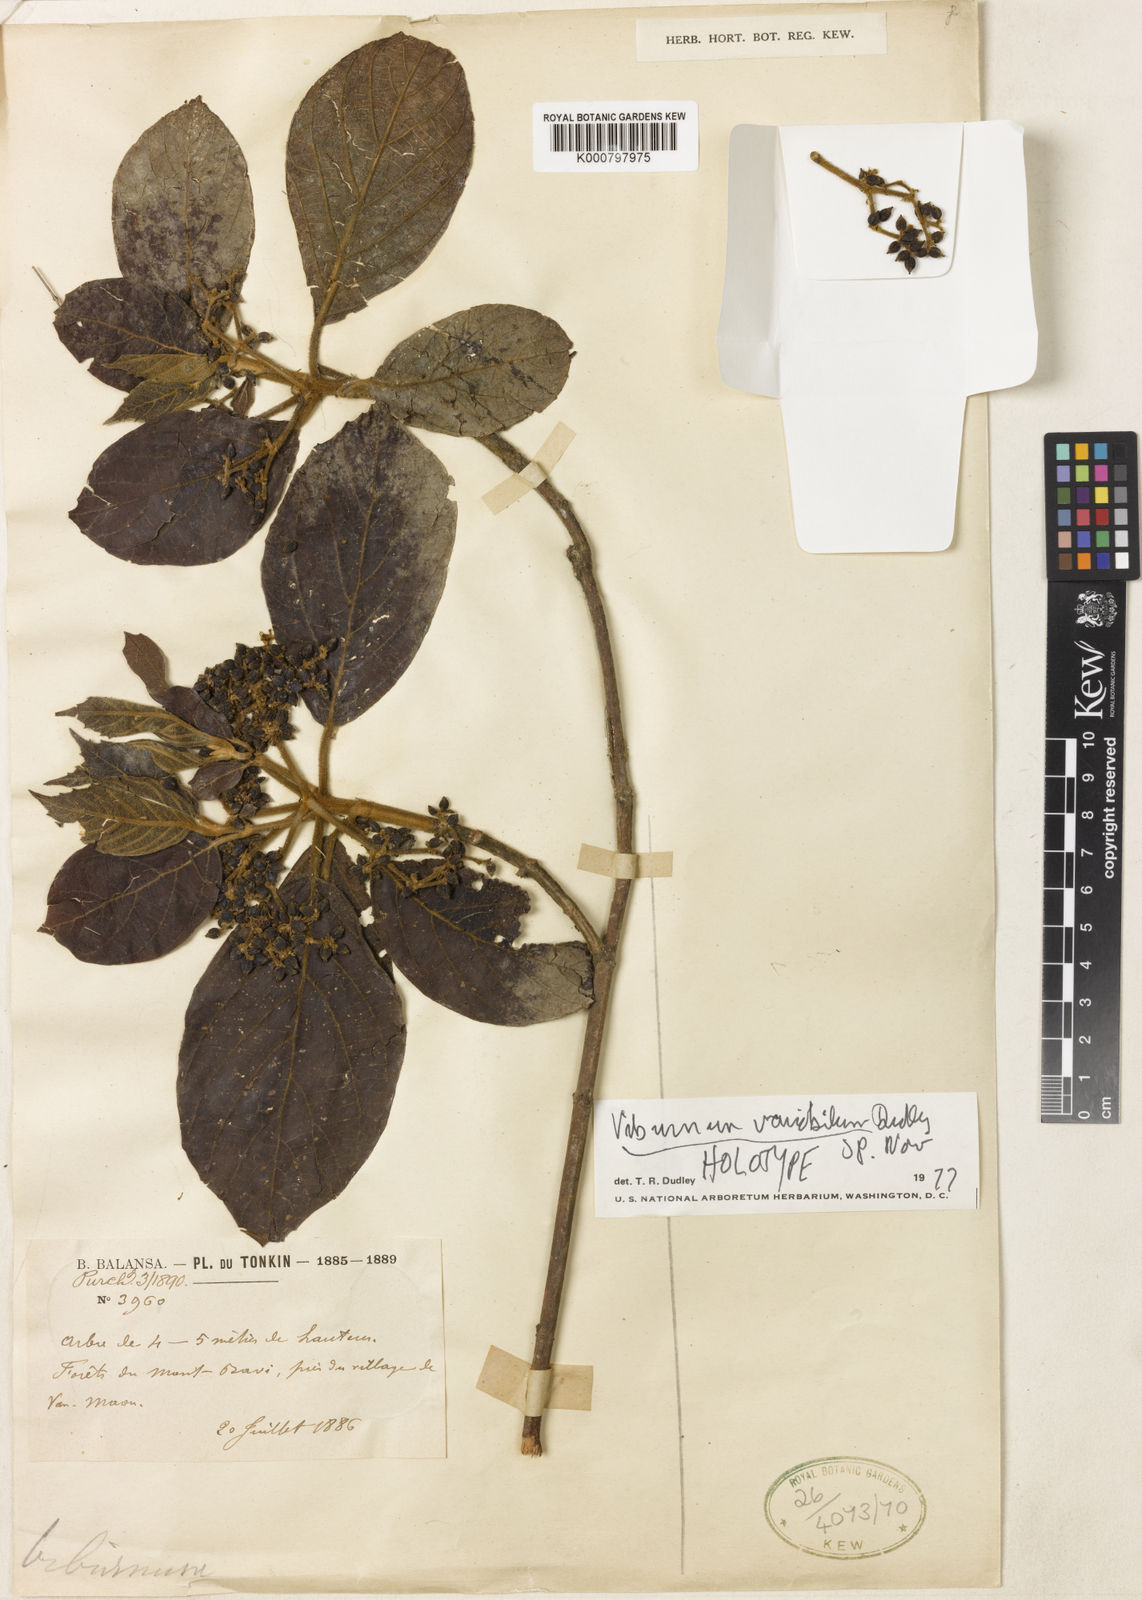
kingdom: Plantae
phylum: Tracheophyta
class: Magnoliopsida
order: Dipsacales
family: Viburnaceae
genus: Viburnum
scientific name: Viburnum
